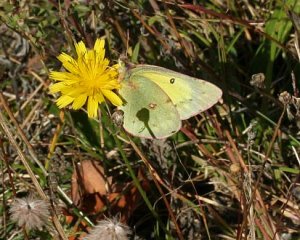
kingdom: Animalia
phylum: Arthropoda
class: Insecta
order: Lepidoptera
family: Pieridae
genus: Colias
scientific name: Colias philodice
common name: Clouded Sulphur
